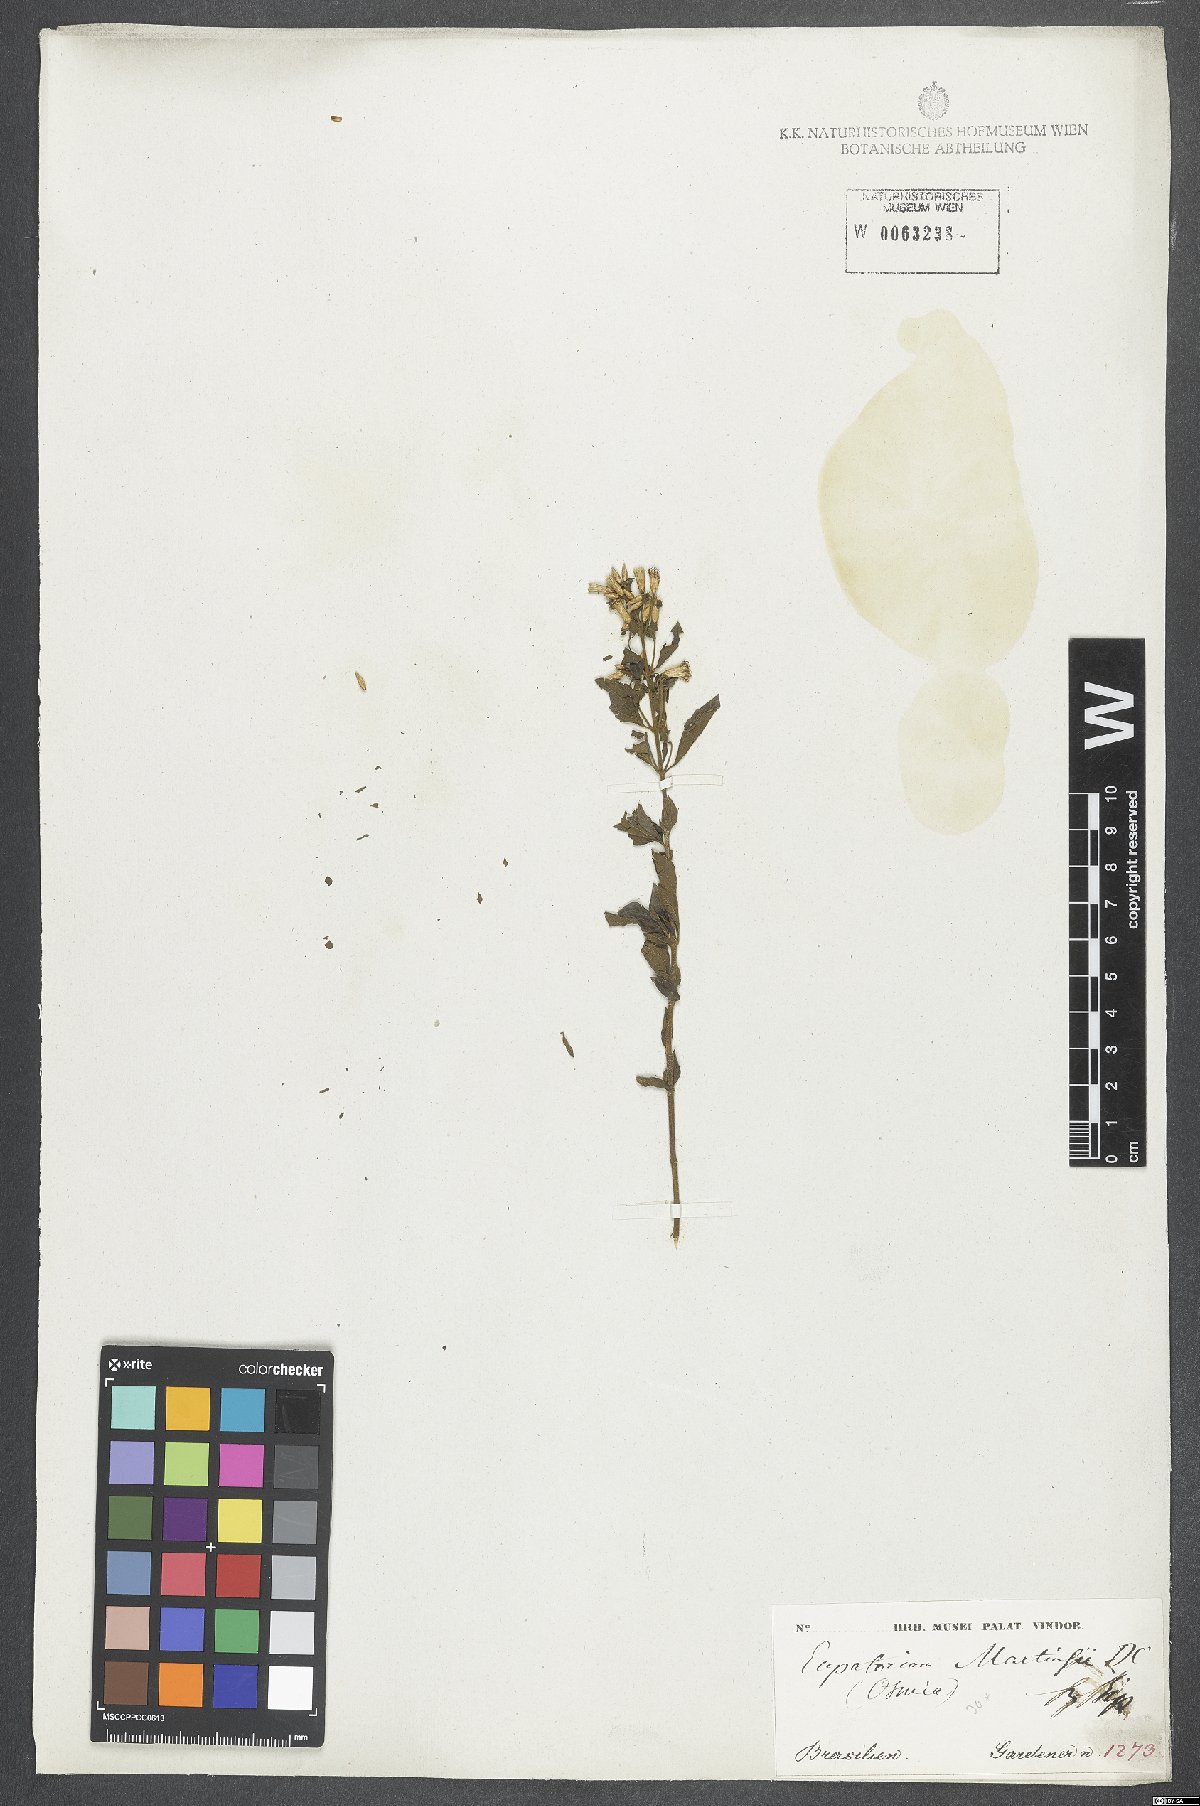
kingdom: Plantae
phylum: Tracheophyta
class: Magnoliopsida
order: Asterales
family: Asteraceae
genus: Chromolaena
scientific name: Chromolaena squalida
